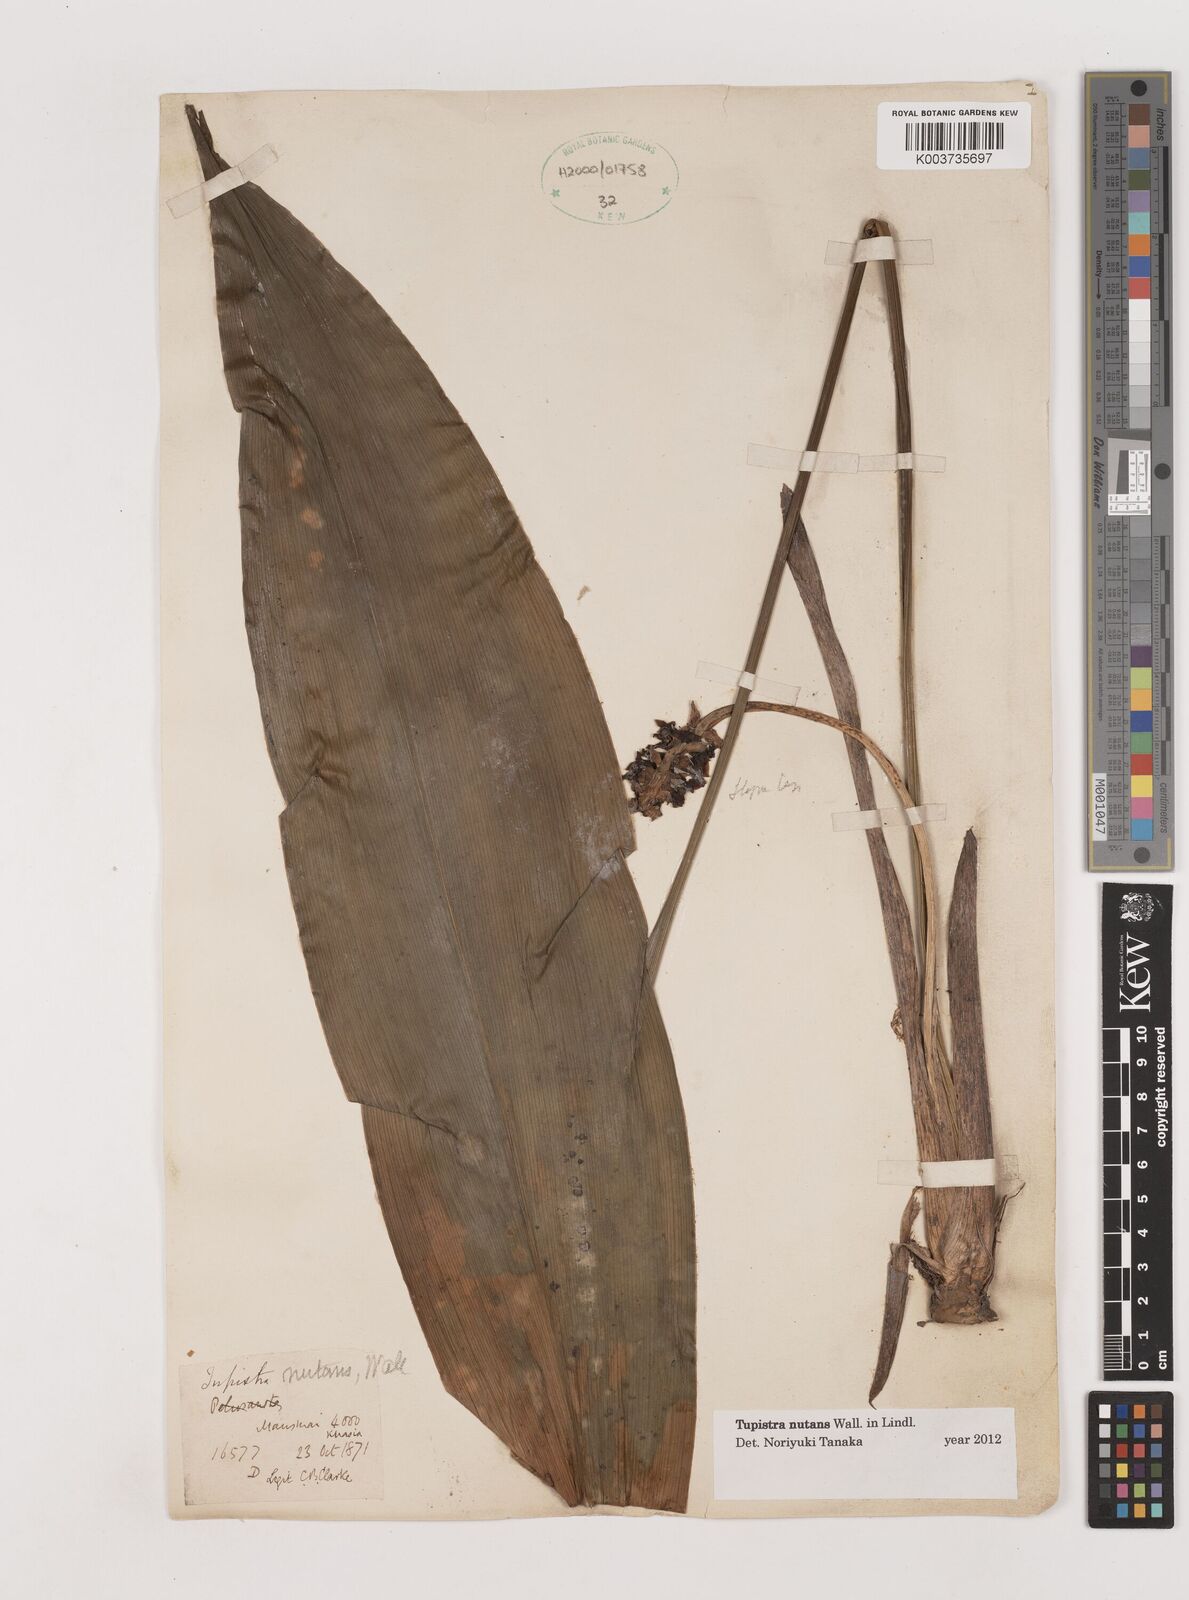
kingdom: Plantae
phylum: Tracheophyta
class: Liliopsida
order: Asparagales
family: Asparagaceae
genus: Tupistra
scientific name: Tupistra nutans
